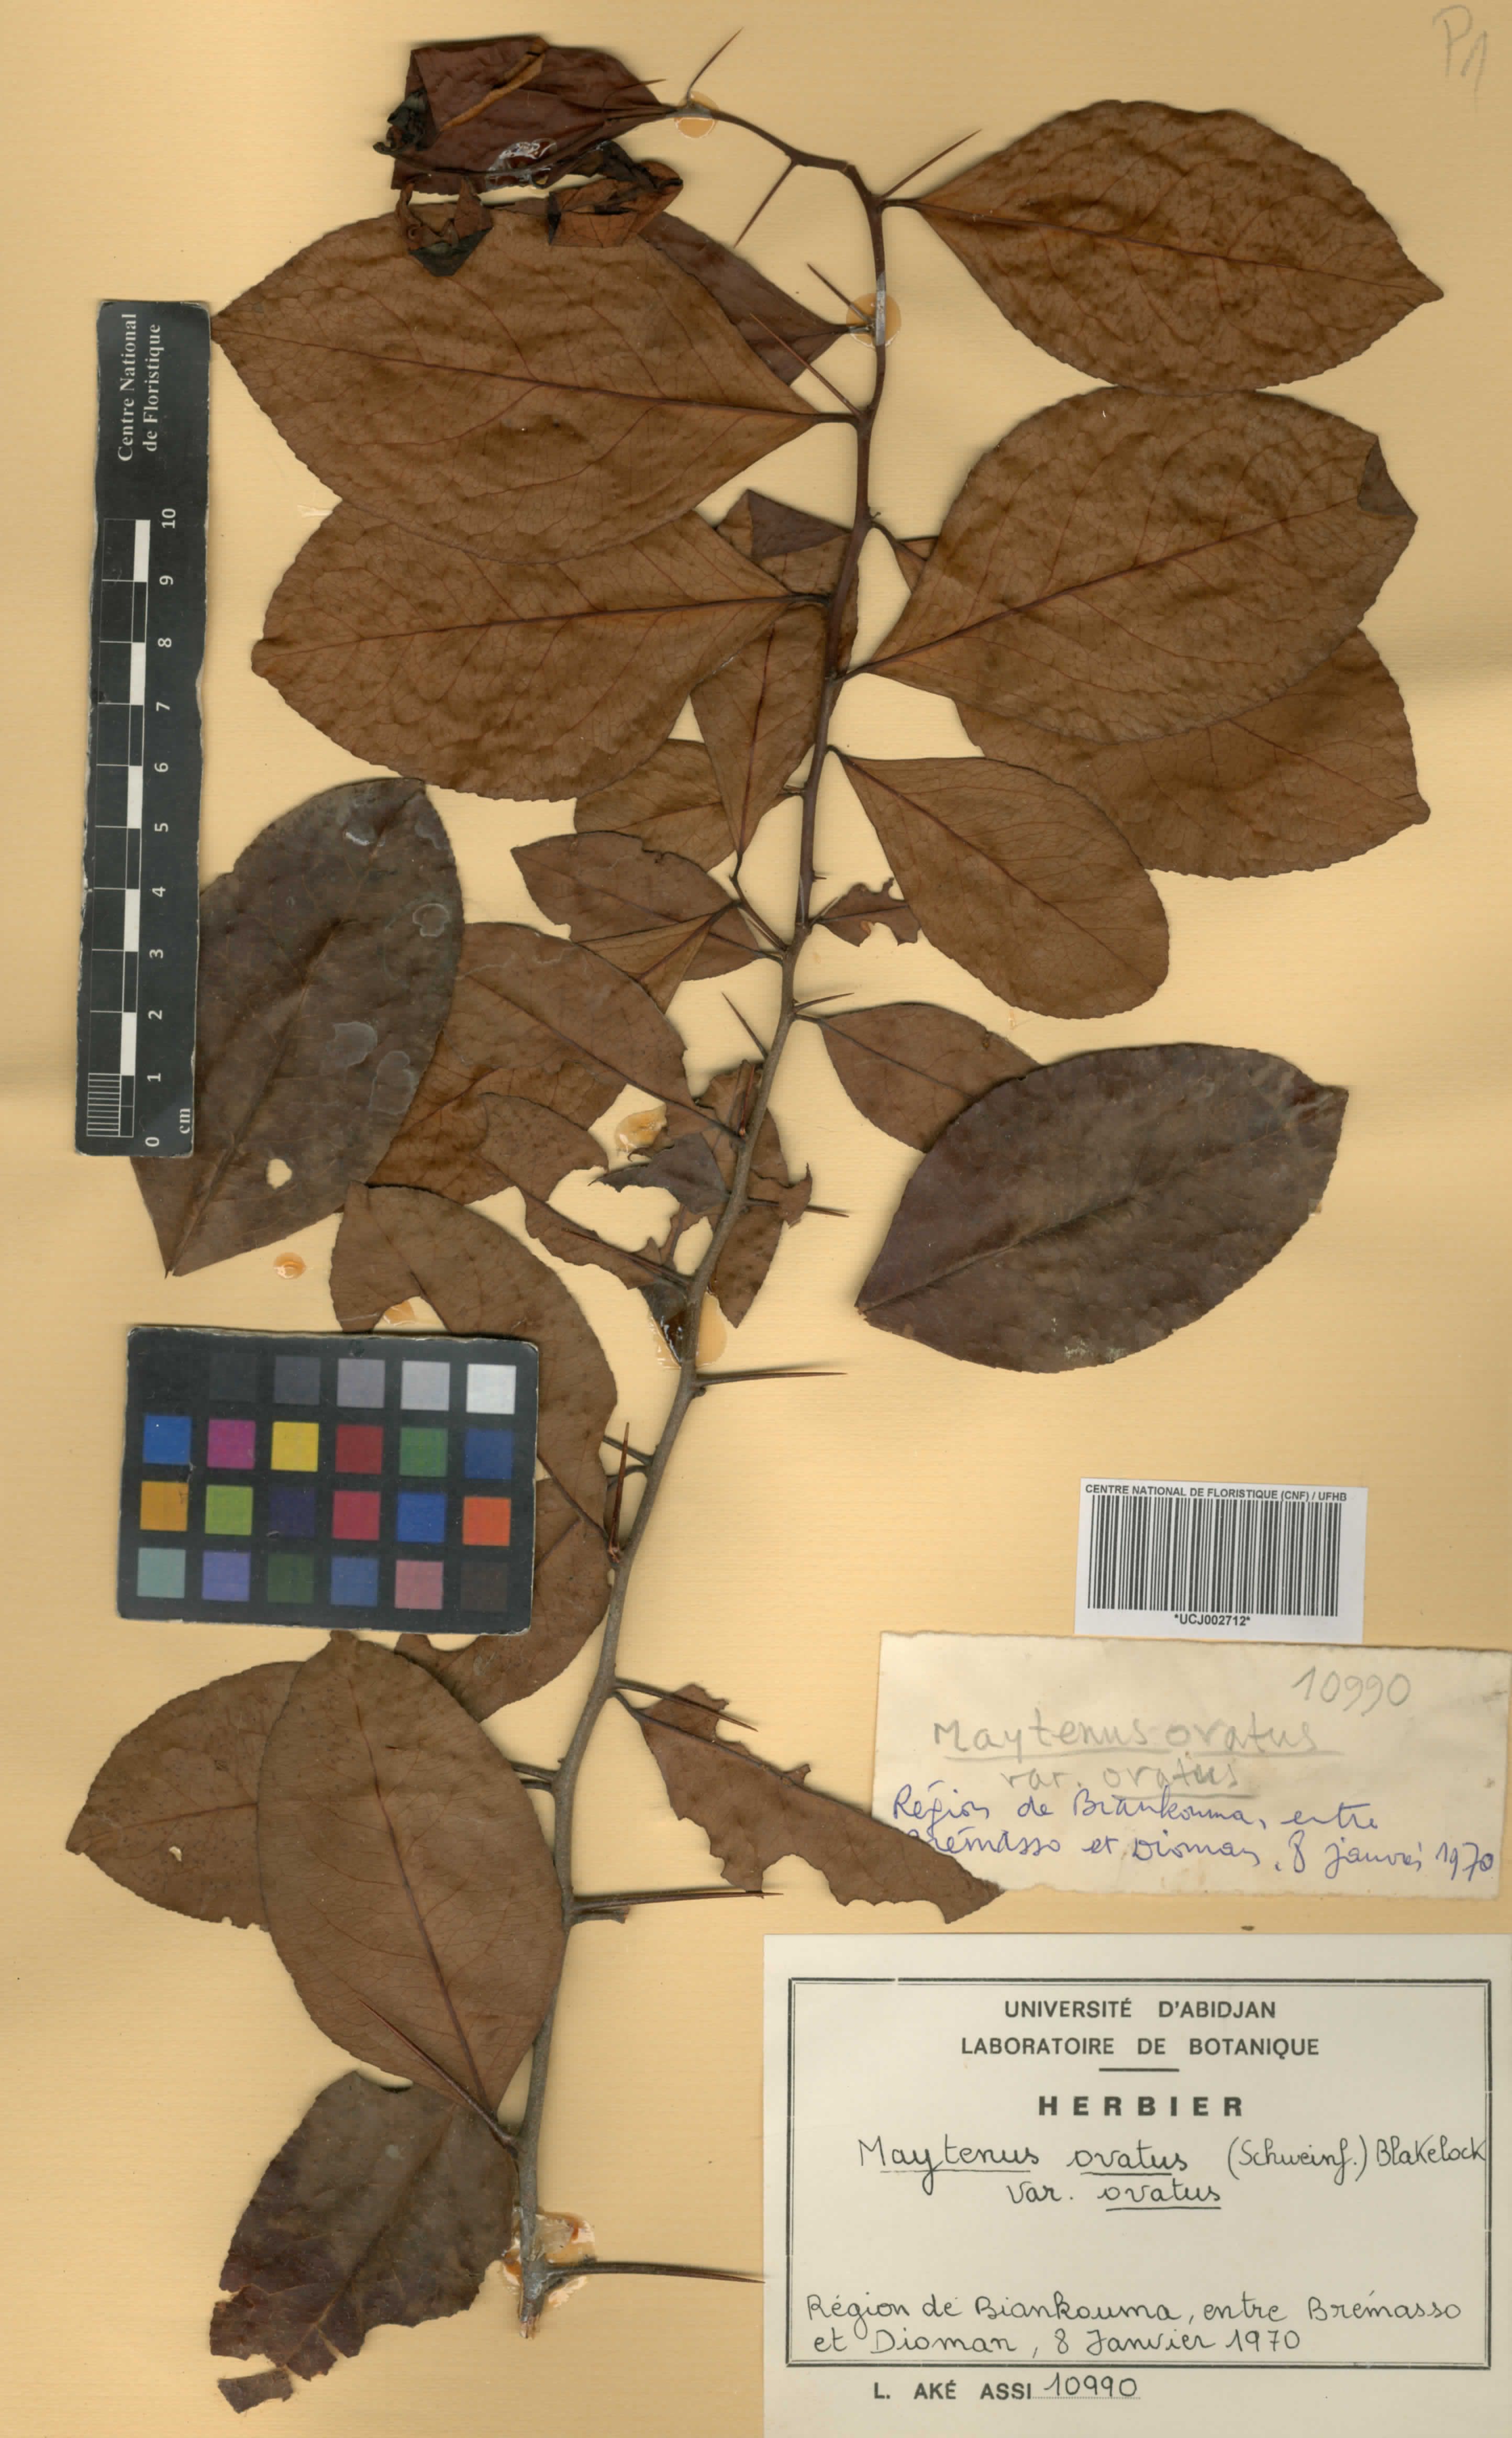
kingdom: Plantae
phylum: Tracheophyta
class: Magnoliopsida
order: Celastrales
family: Celastraceae
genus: Gymnosporia
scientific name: Gymnosporia buchananii
